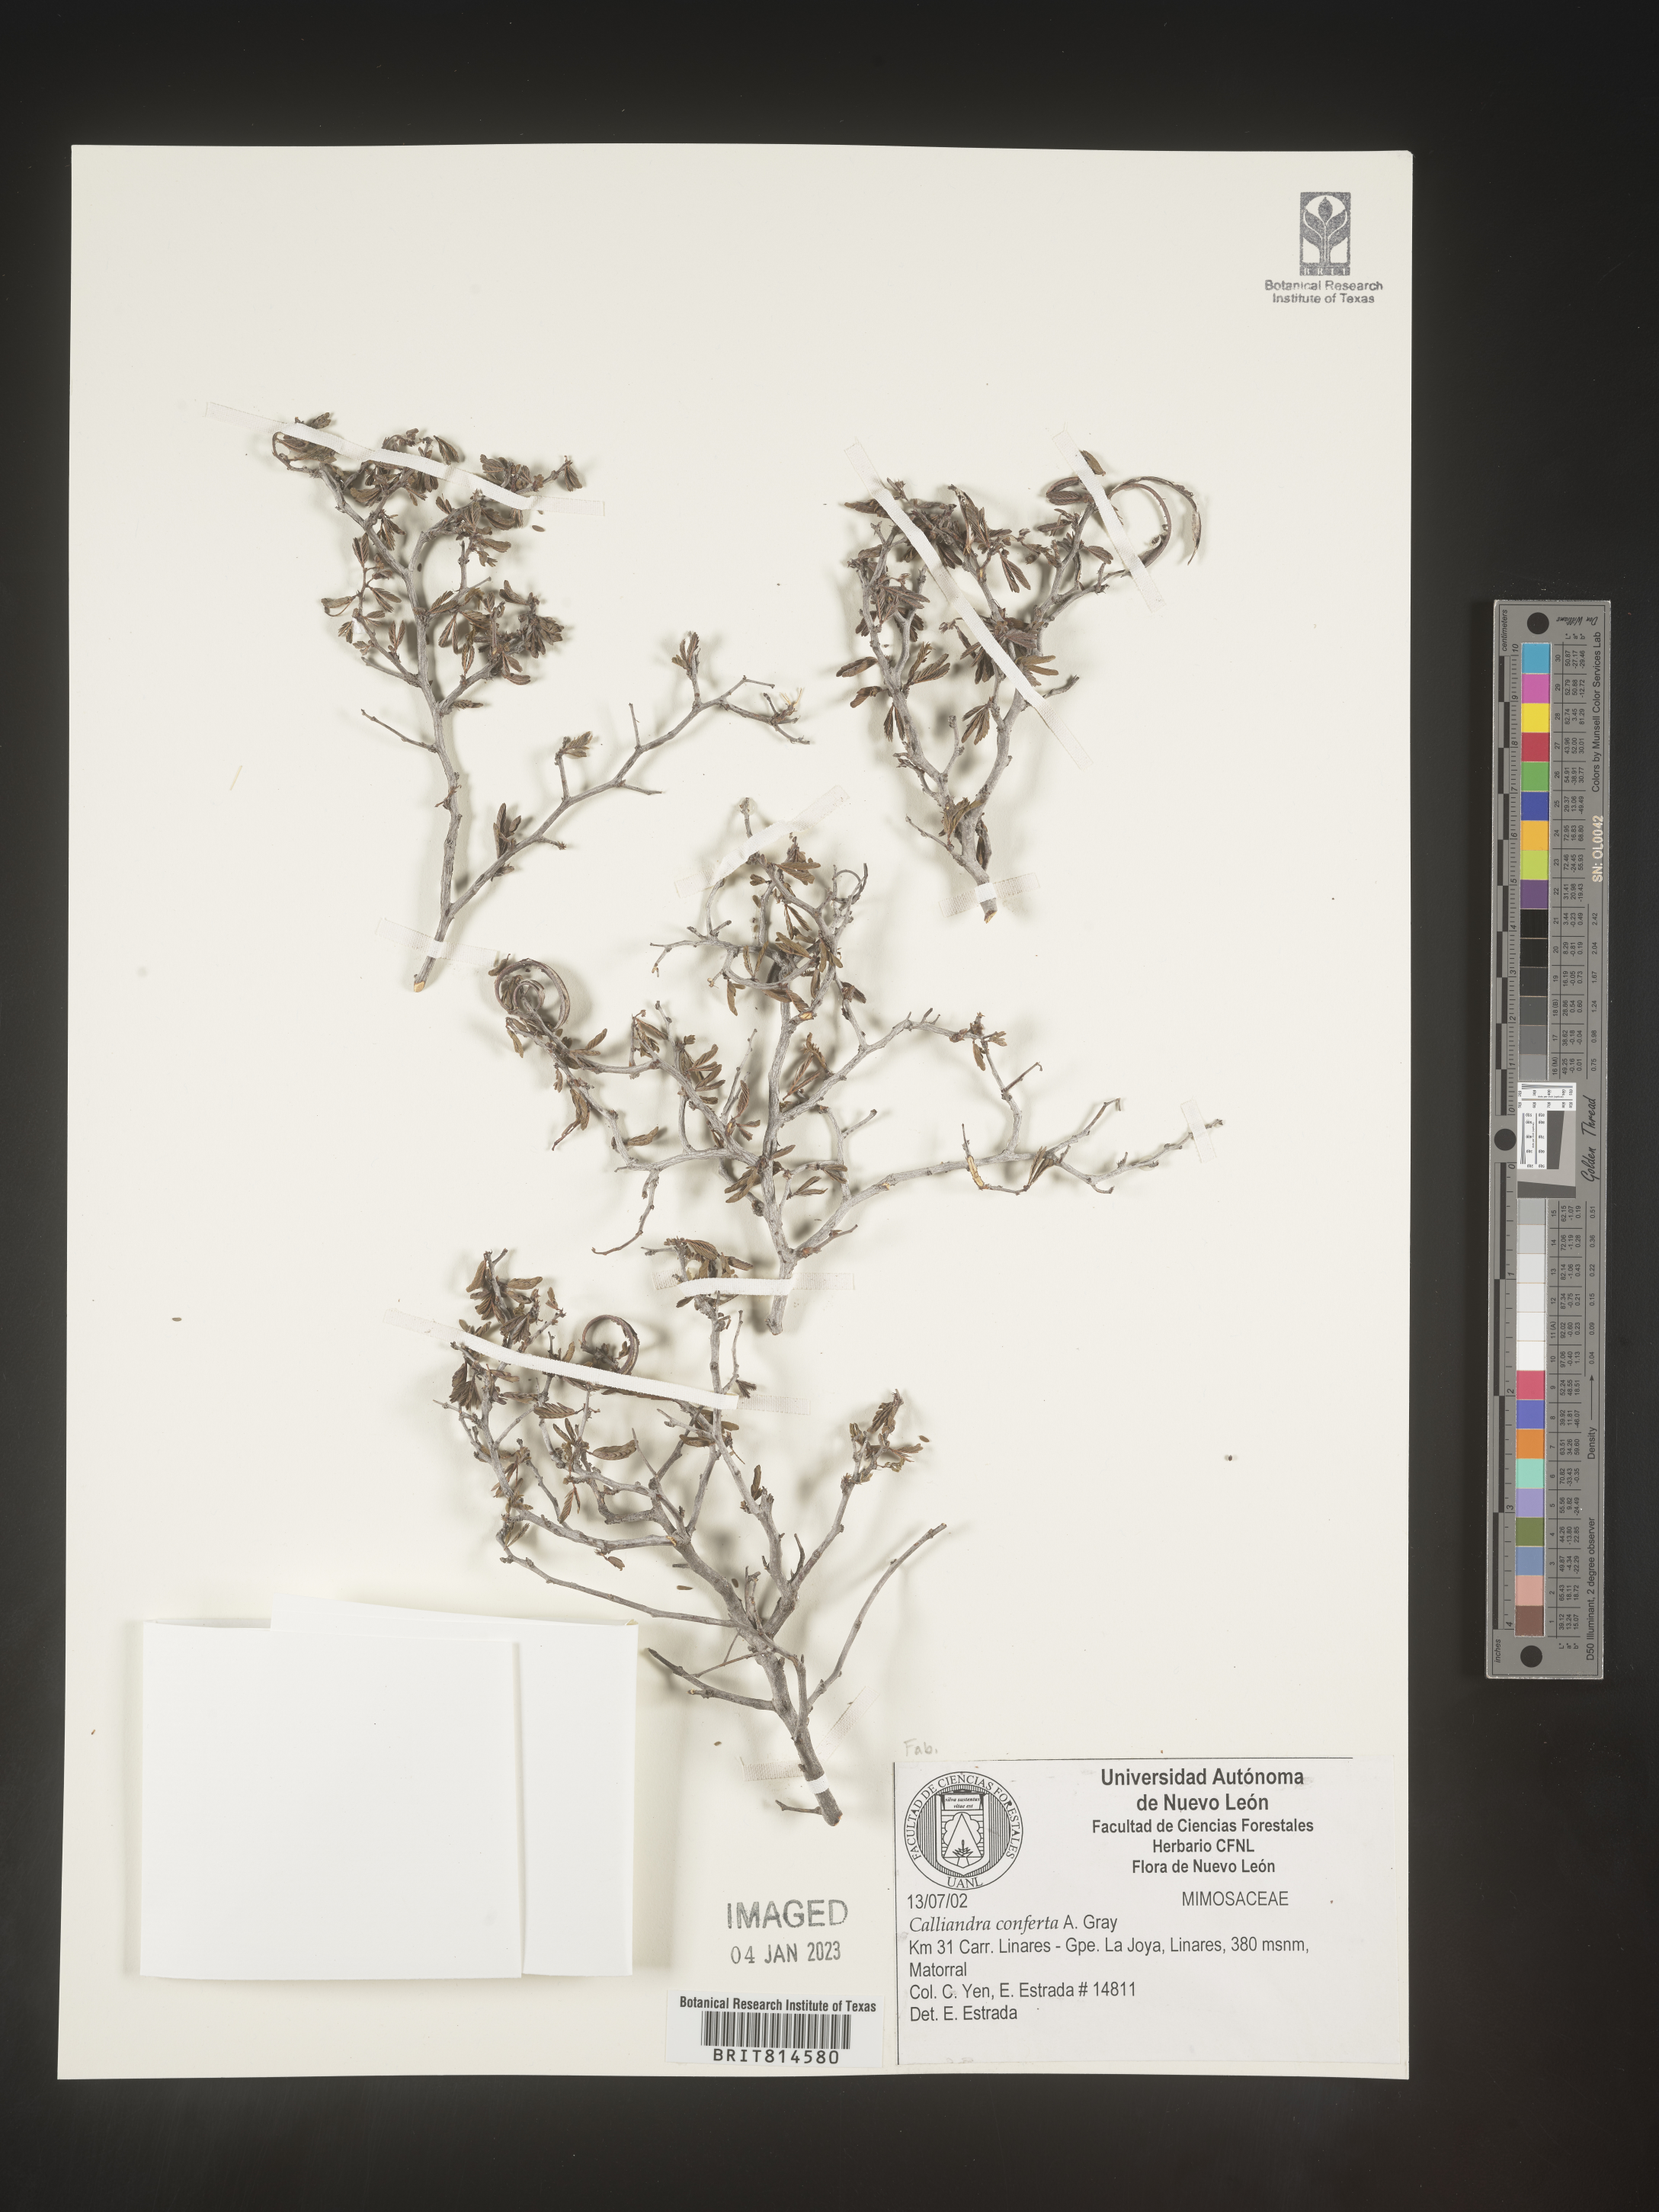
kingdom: Plantae
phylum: Tracheophyta
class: Magnoliopsida
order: Fabales
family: Fabaceae
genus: Calliandra
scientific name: Calliandra
